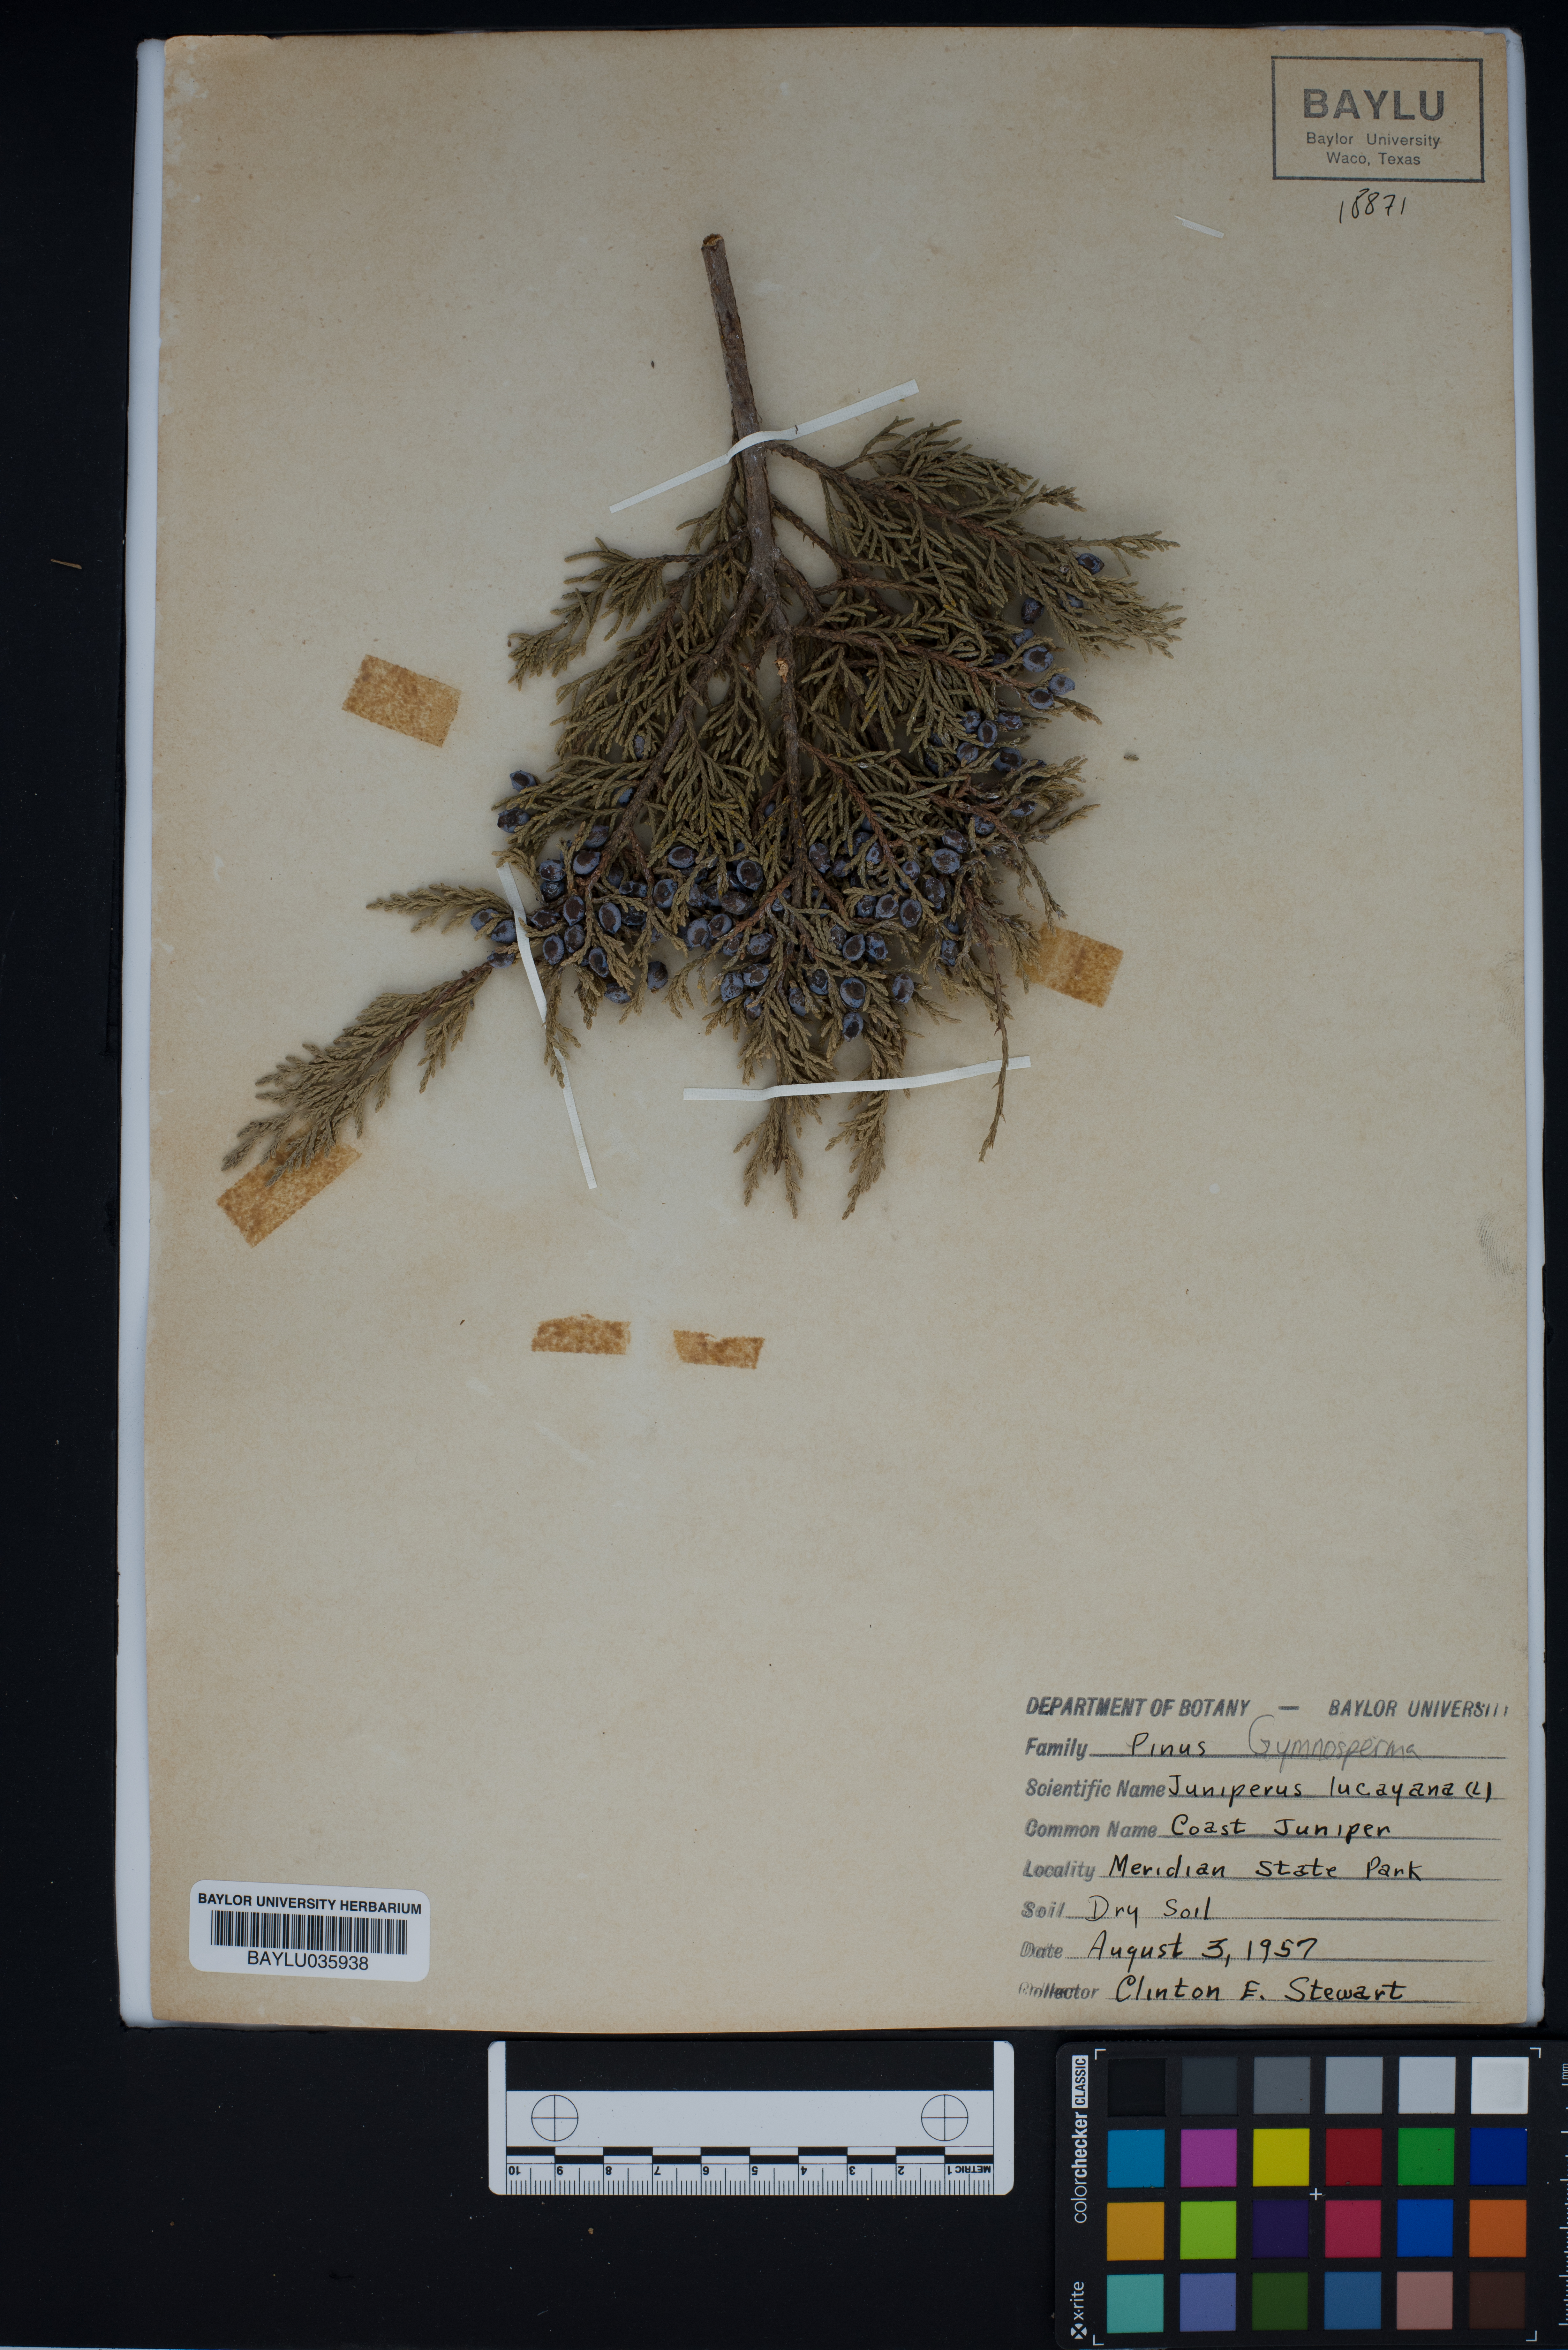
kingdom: Plantae
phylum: Tracheophyta
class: Pinopsida
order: Pinales
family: Cupressaceae
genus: Juniperus
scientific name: Juniperus barbadensis
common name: West indies juniper
